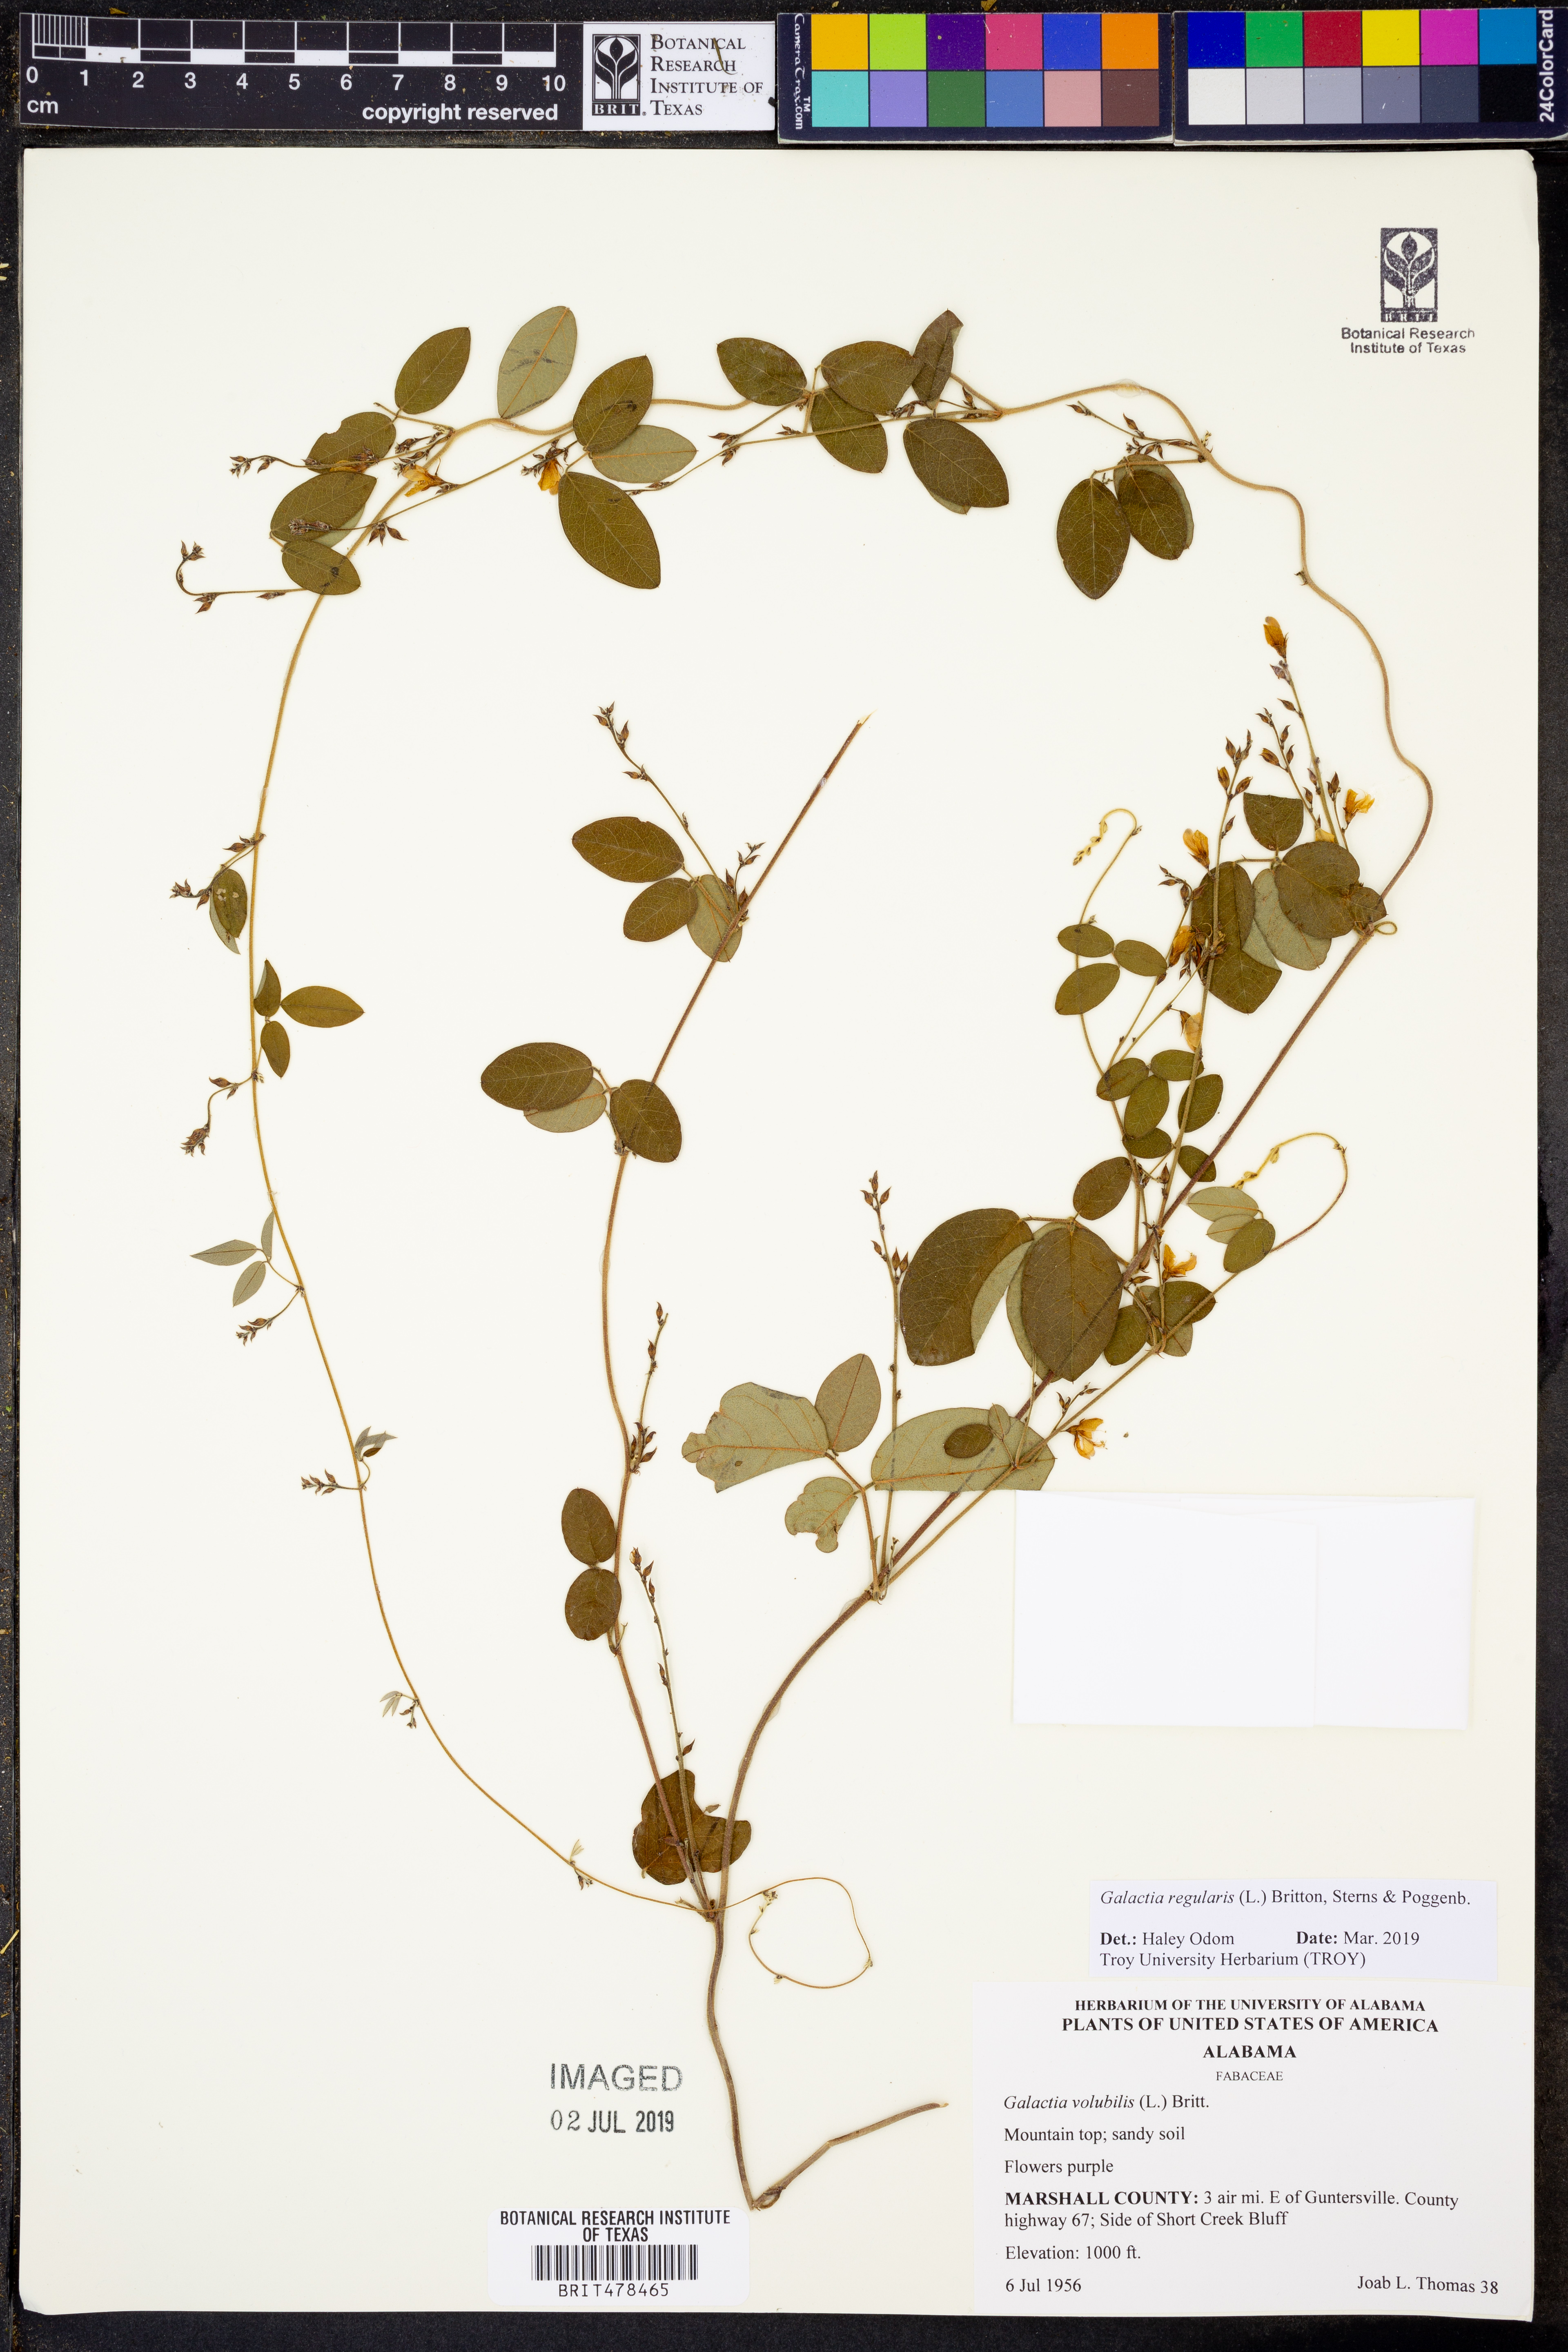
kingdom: Plantae
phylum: Tracheophyta
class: Magnoliopsida
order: Fabales
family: Fabaceae
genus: Galactia
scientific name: Galactia regularis
